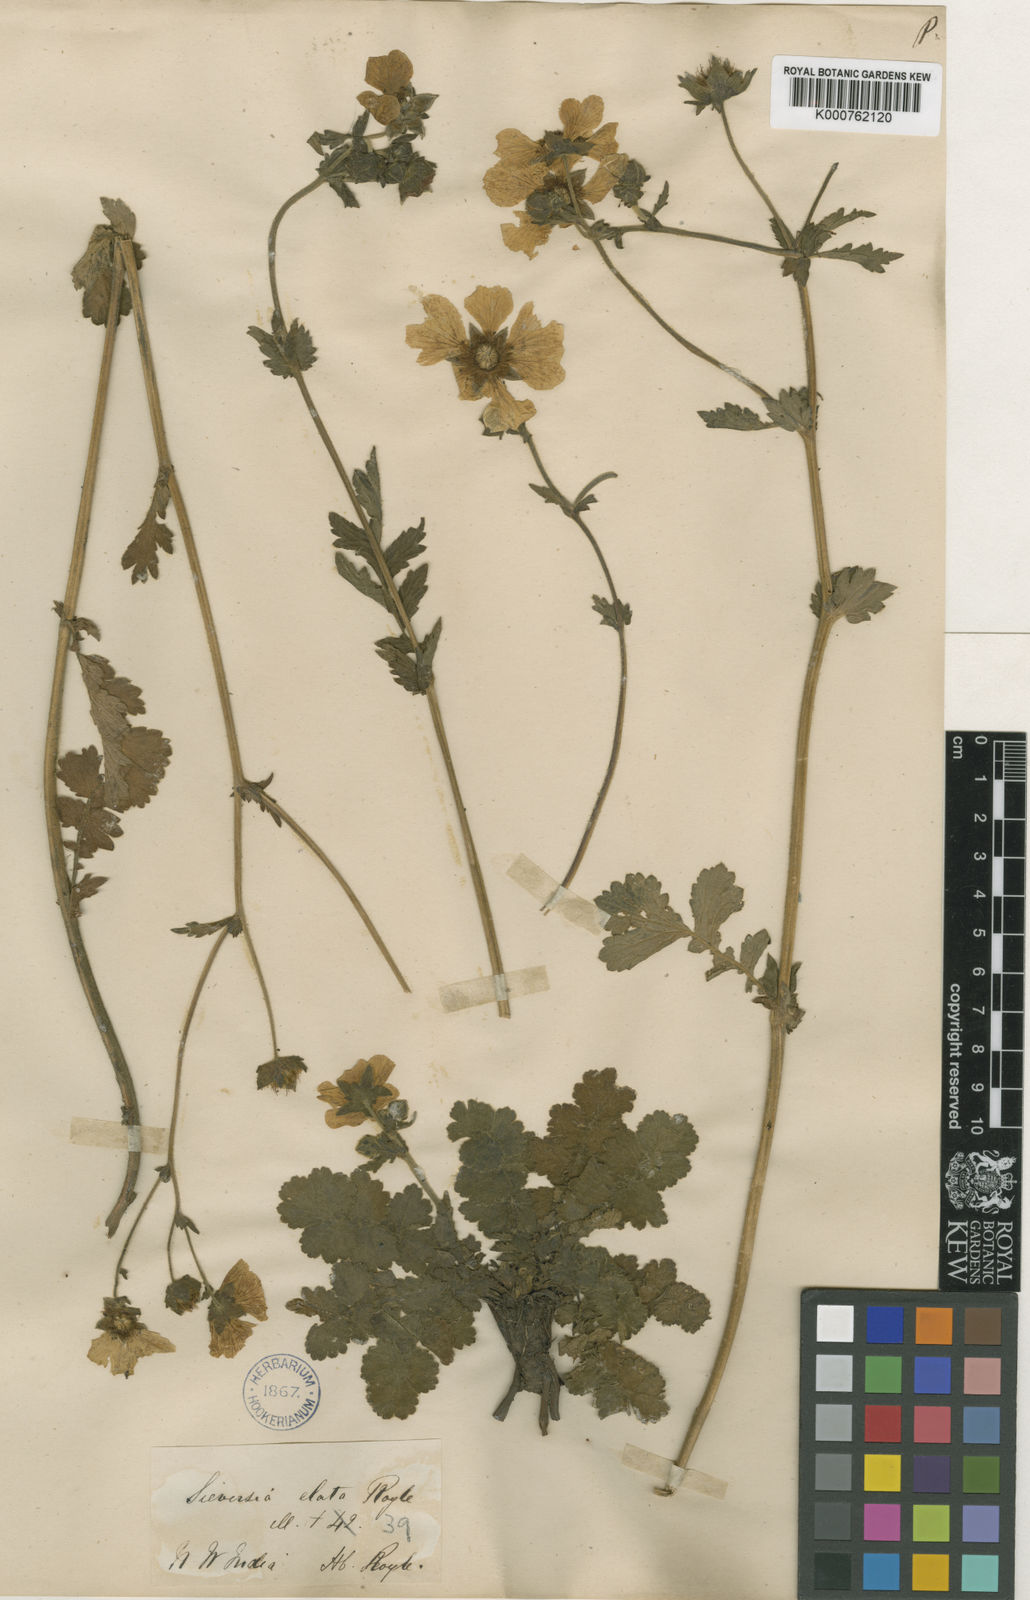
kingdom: Plantae
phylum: Tracheophyta
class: Magnoliopsida
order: Rosales
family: Rosaceae
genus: Geum
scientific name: Geum
